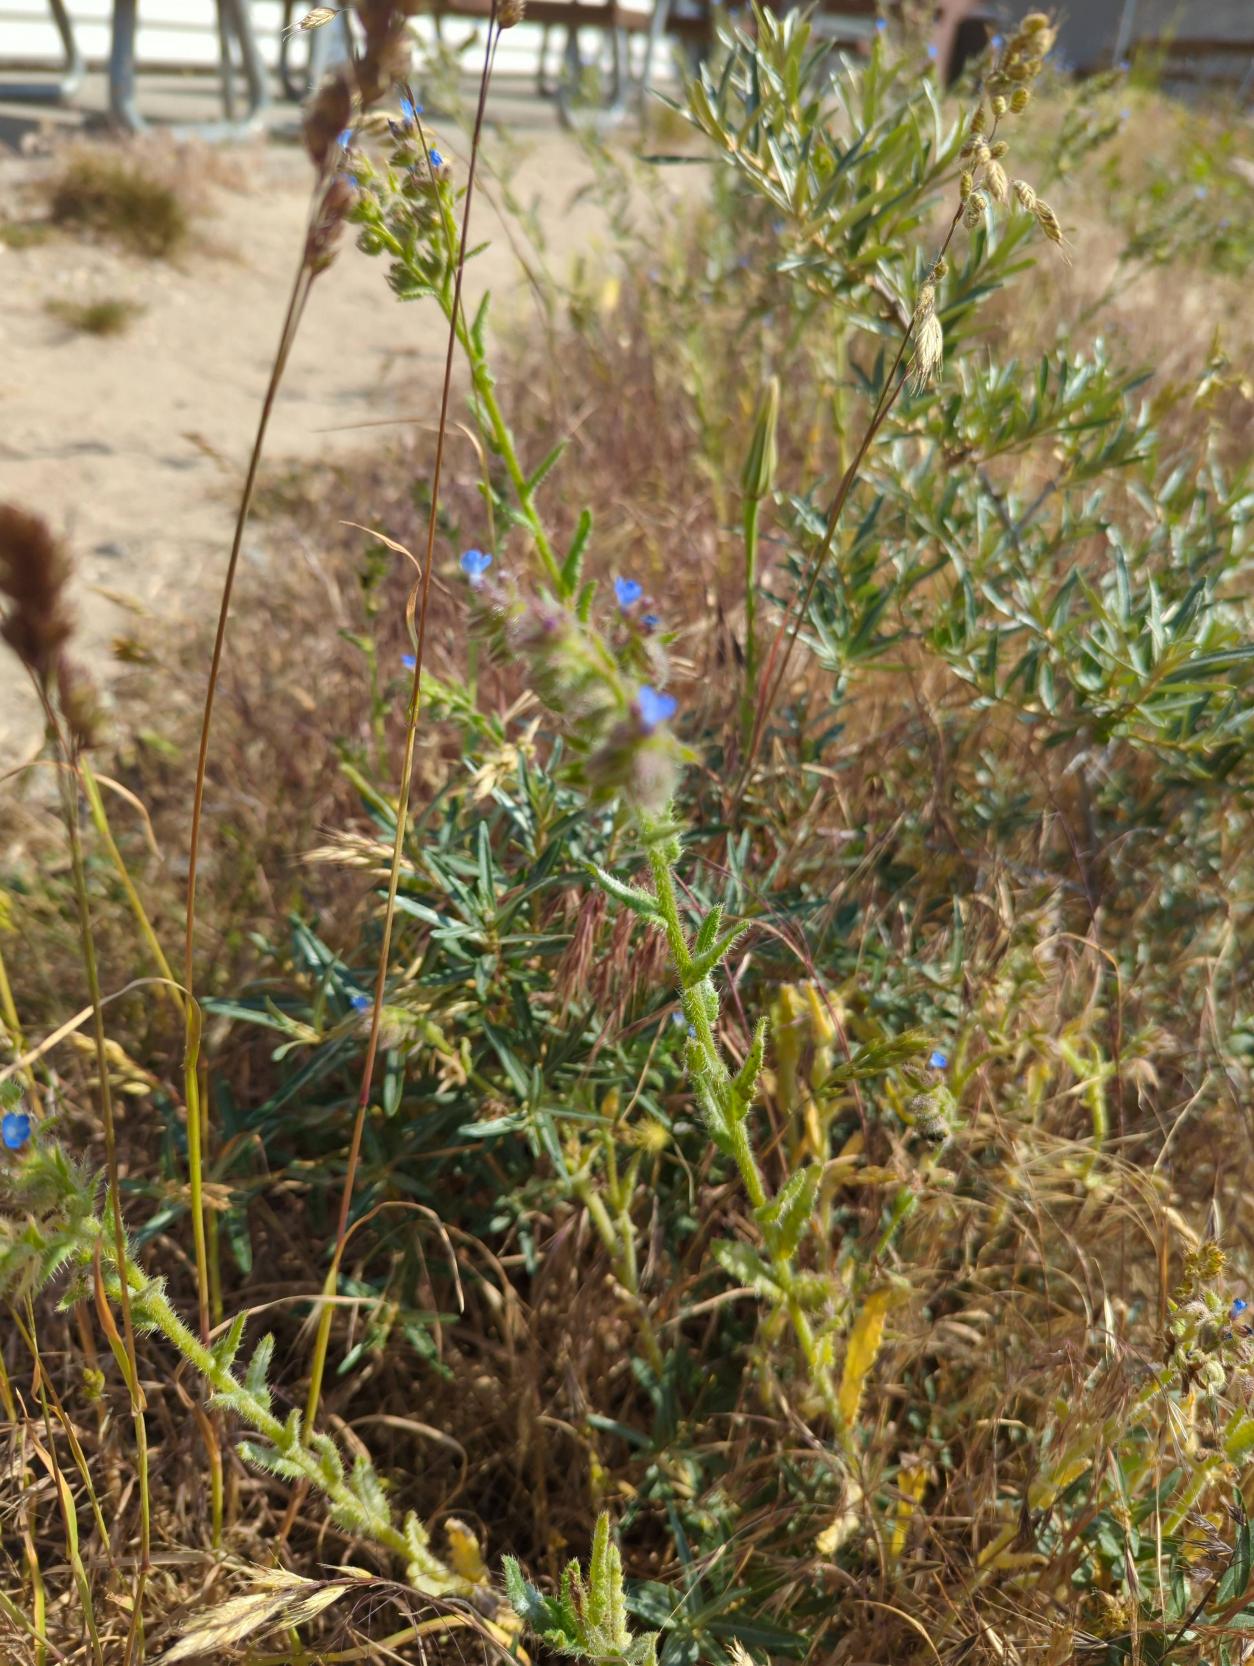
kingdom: Plantae
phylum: Tracheophyta
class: Magnoliopsida
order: Boraginales
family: Boraginaceae
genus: Lycopsis
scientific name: Lycopsis arvensis
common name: Krumhals
